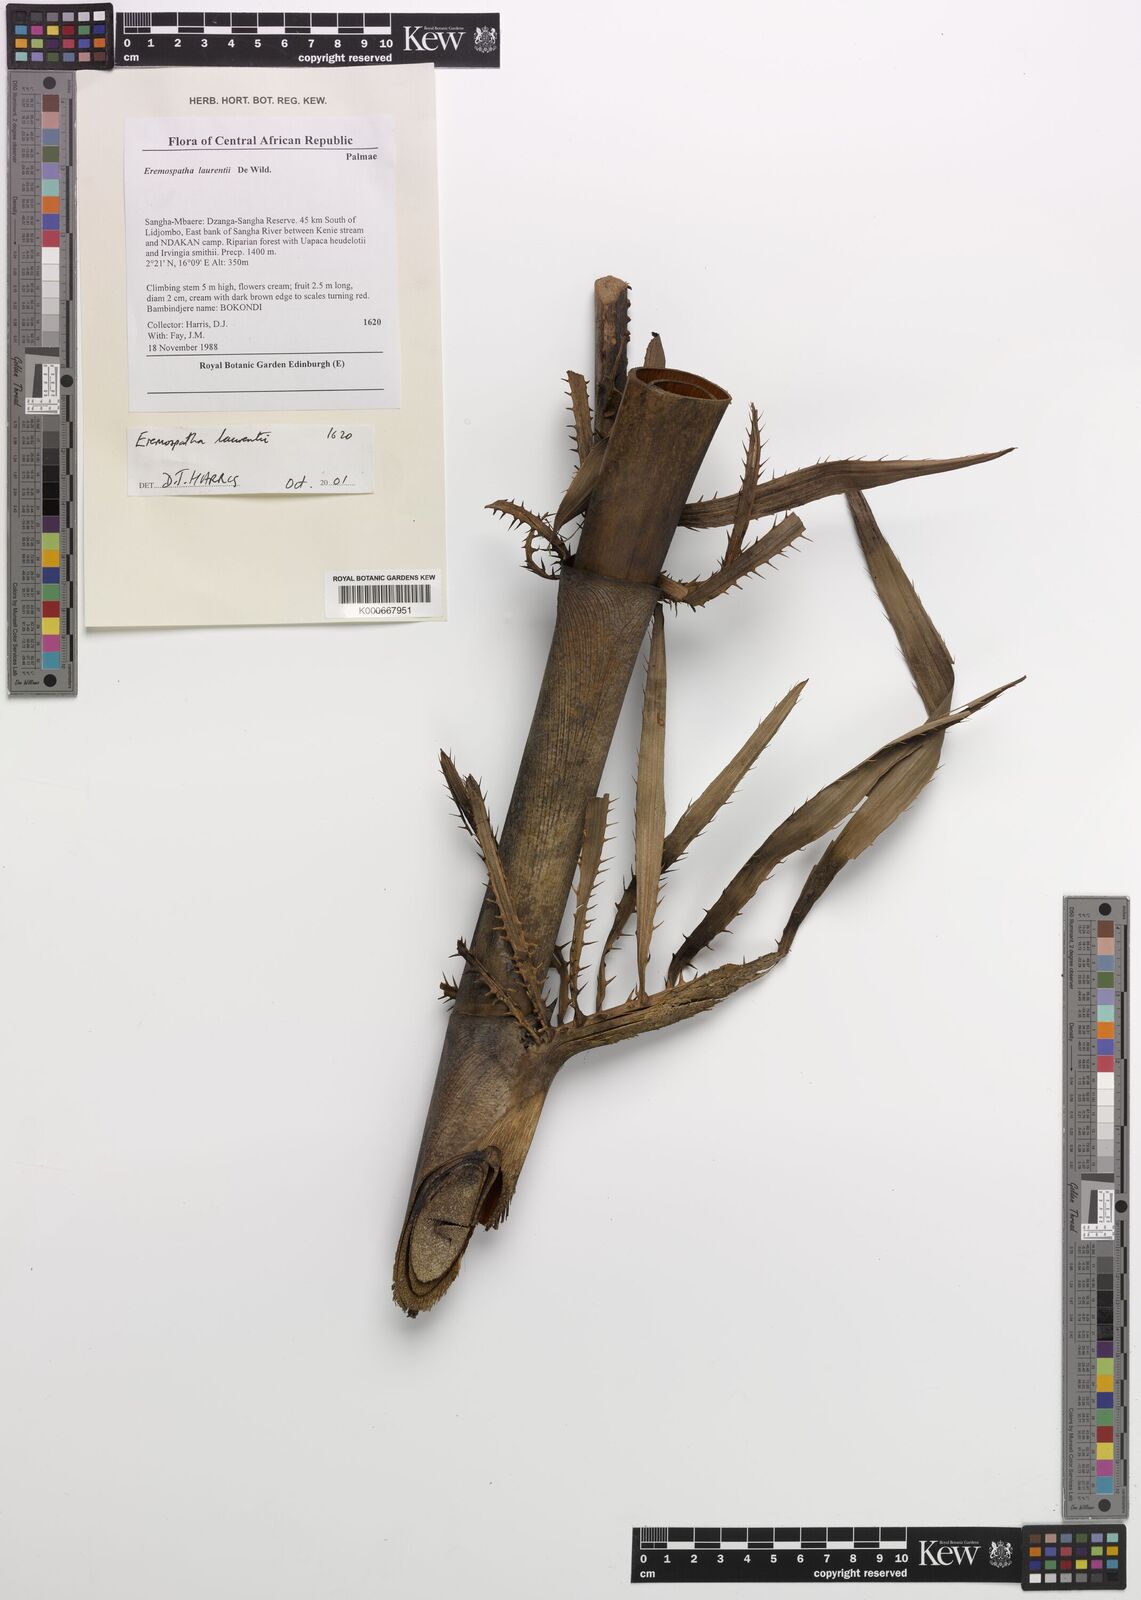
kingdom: Plantae
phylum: Tracheophyta
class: Liliopsida
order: Arecales
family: Arecaceae
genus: Eremospatha
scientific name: Eremospatha laurentii
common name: Rattan palm
